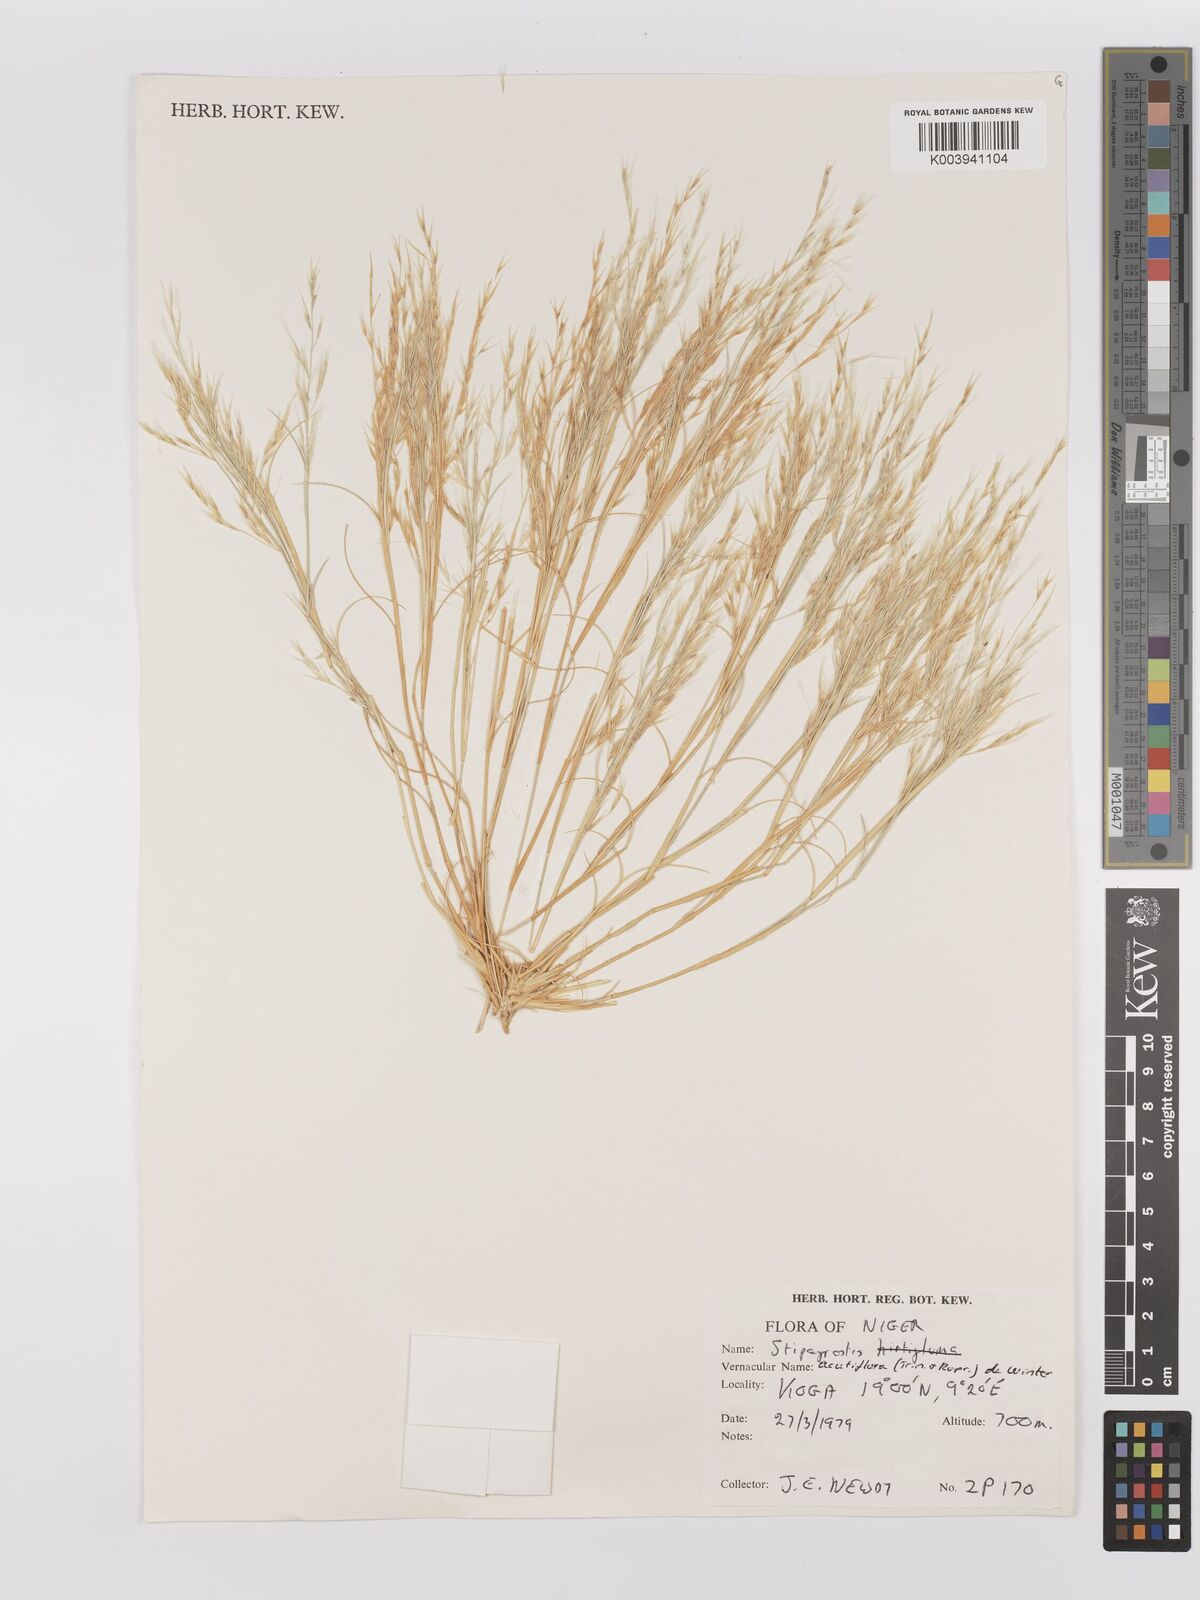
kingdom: Plantae
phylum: Tracheophyta
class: Liliopsida
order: Poales
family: Poaceae
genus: Stipagrostis
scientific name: Stipagrostis acutiflora
